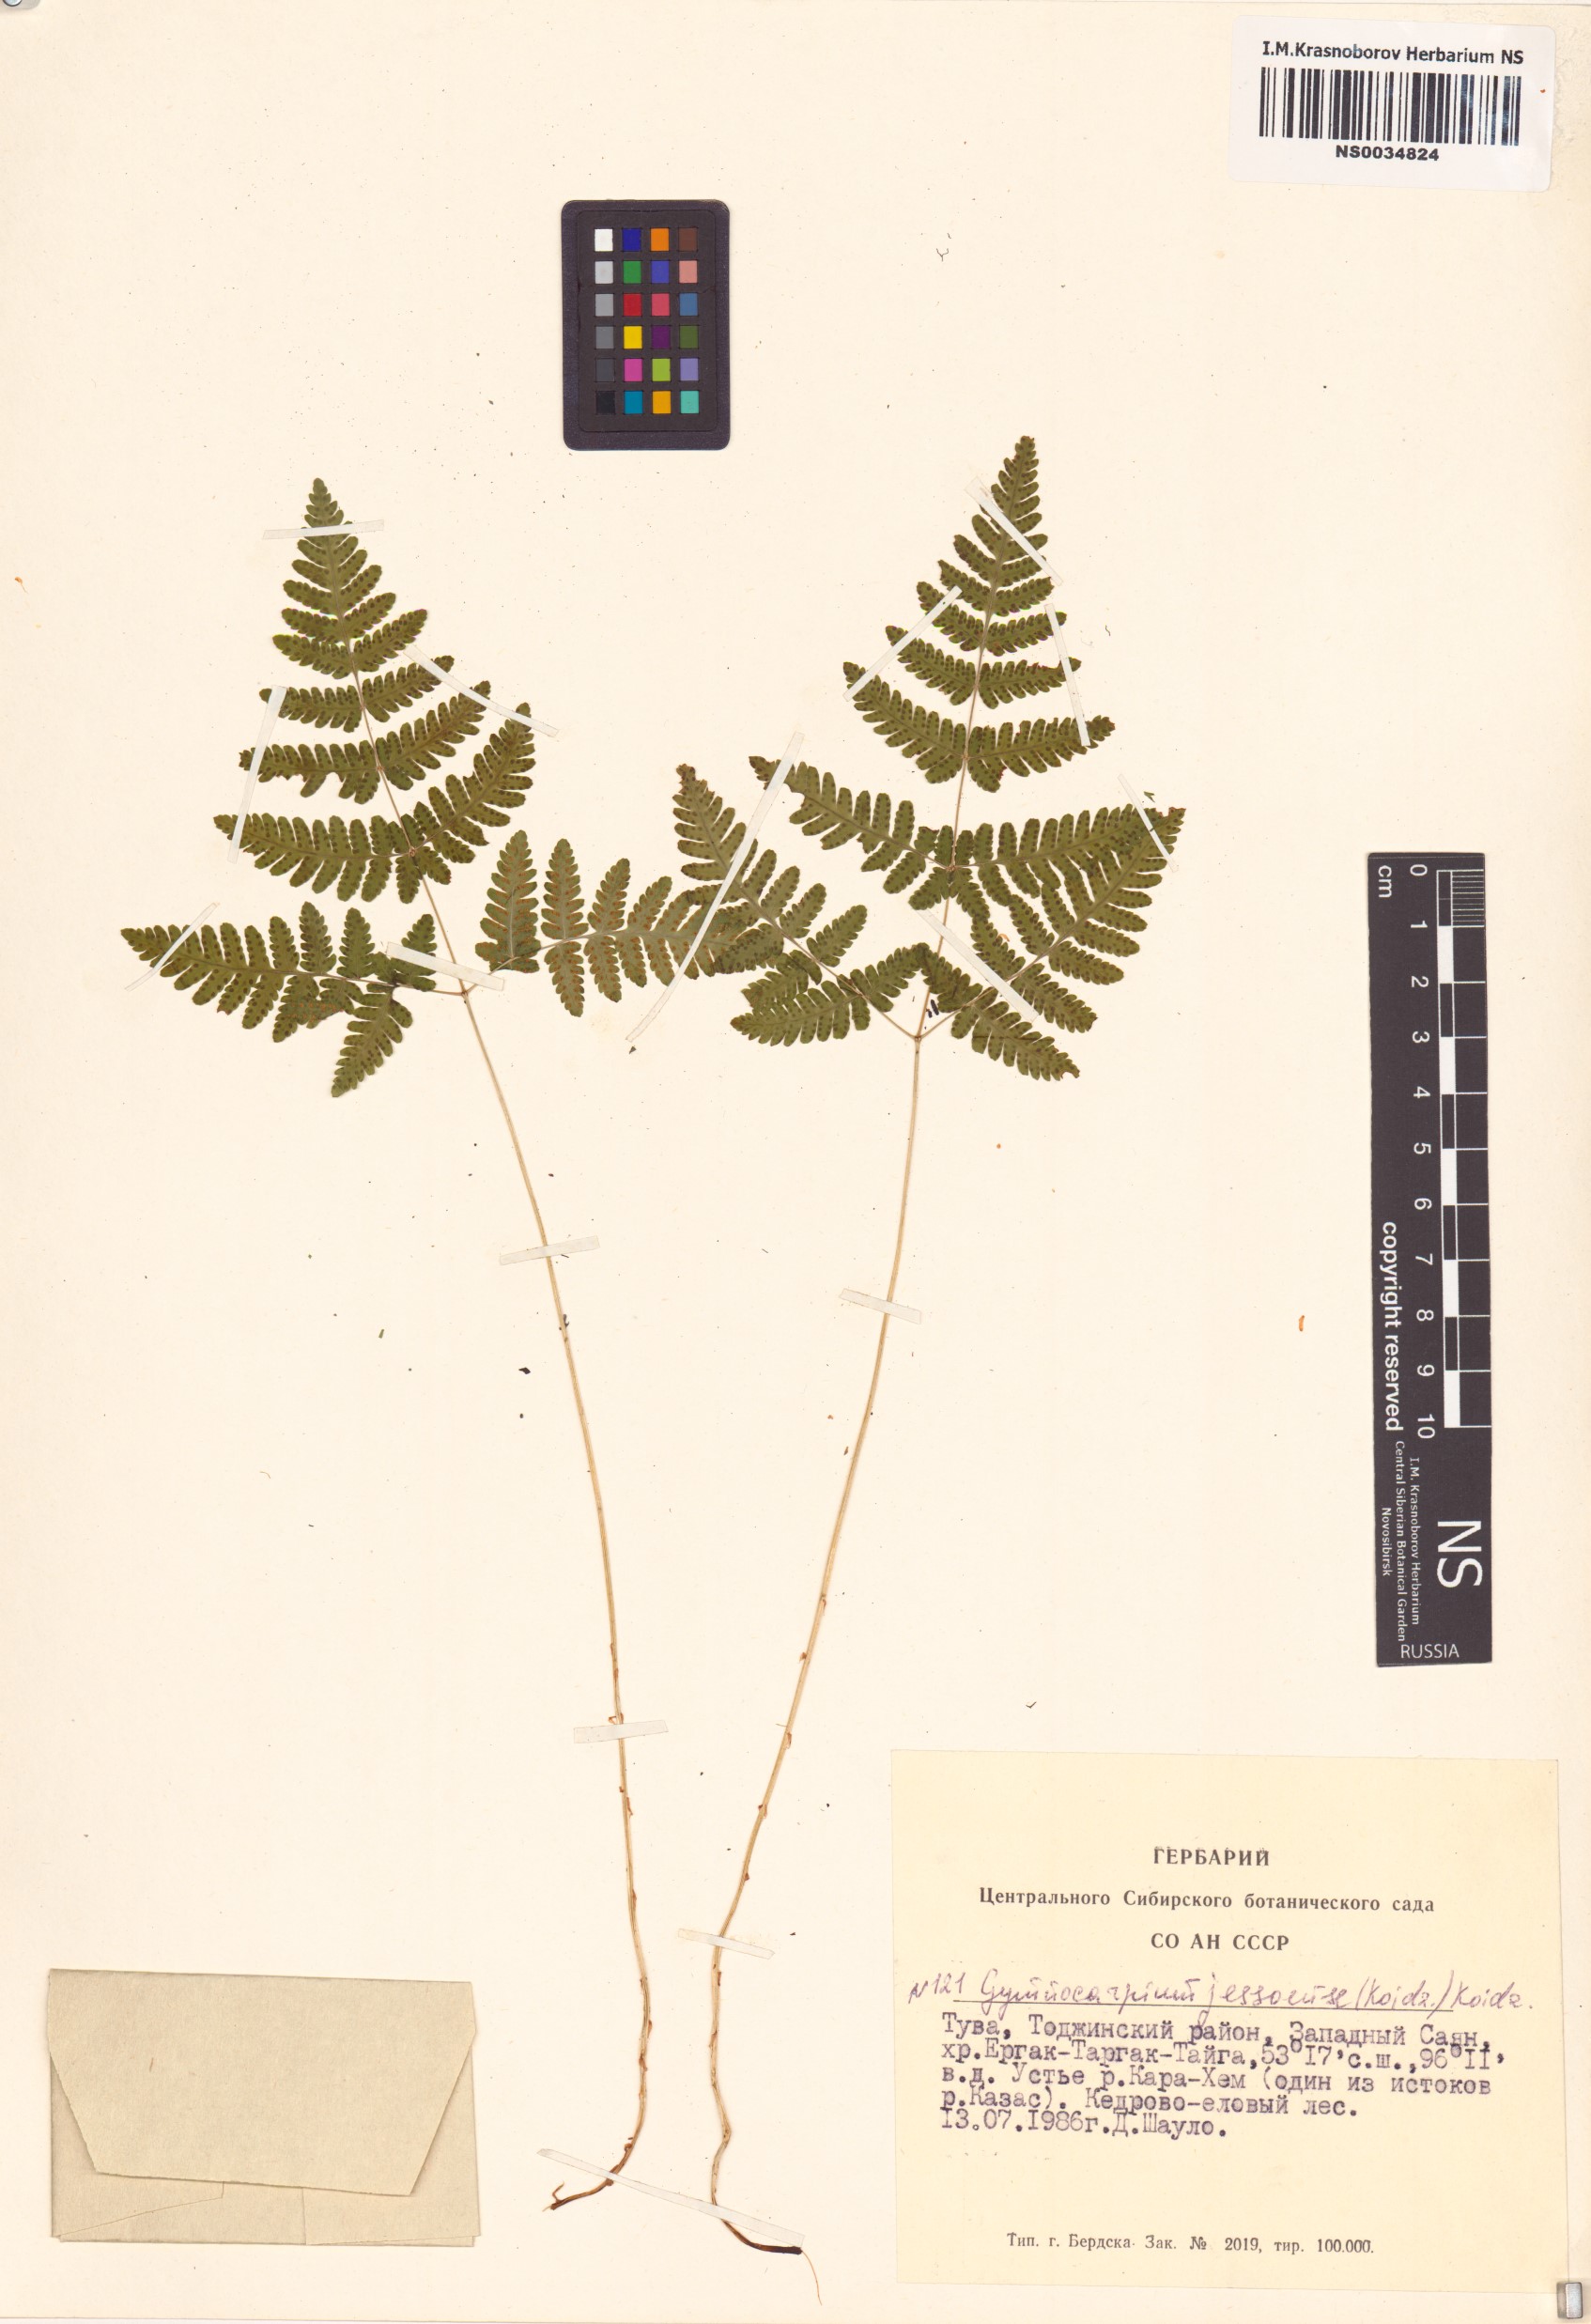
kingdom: Plantae
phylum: Tracheophyta
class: Polypodiopsida
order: Polypodiales
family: Cystopteridaceae
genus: Gymnocarpium
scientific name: Gymnocarpium jessoense
